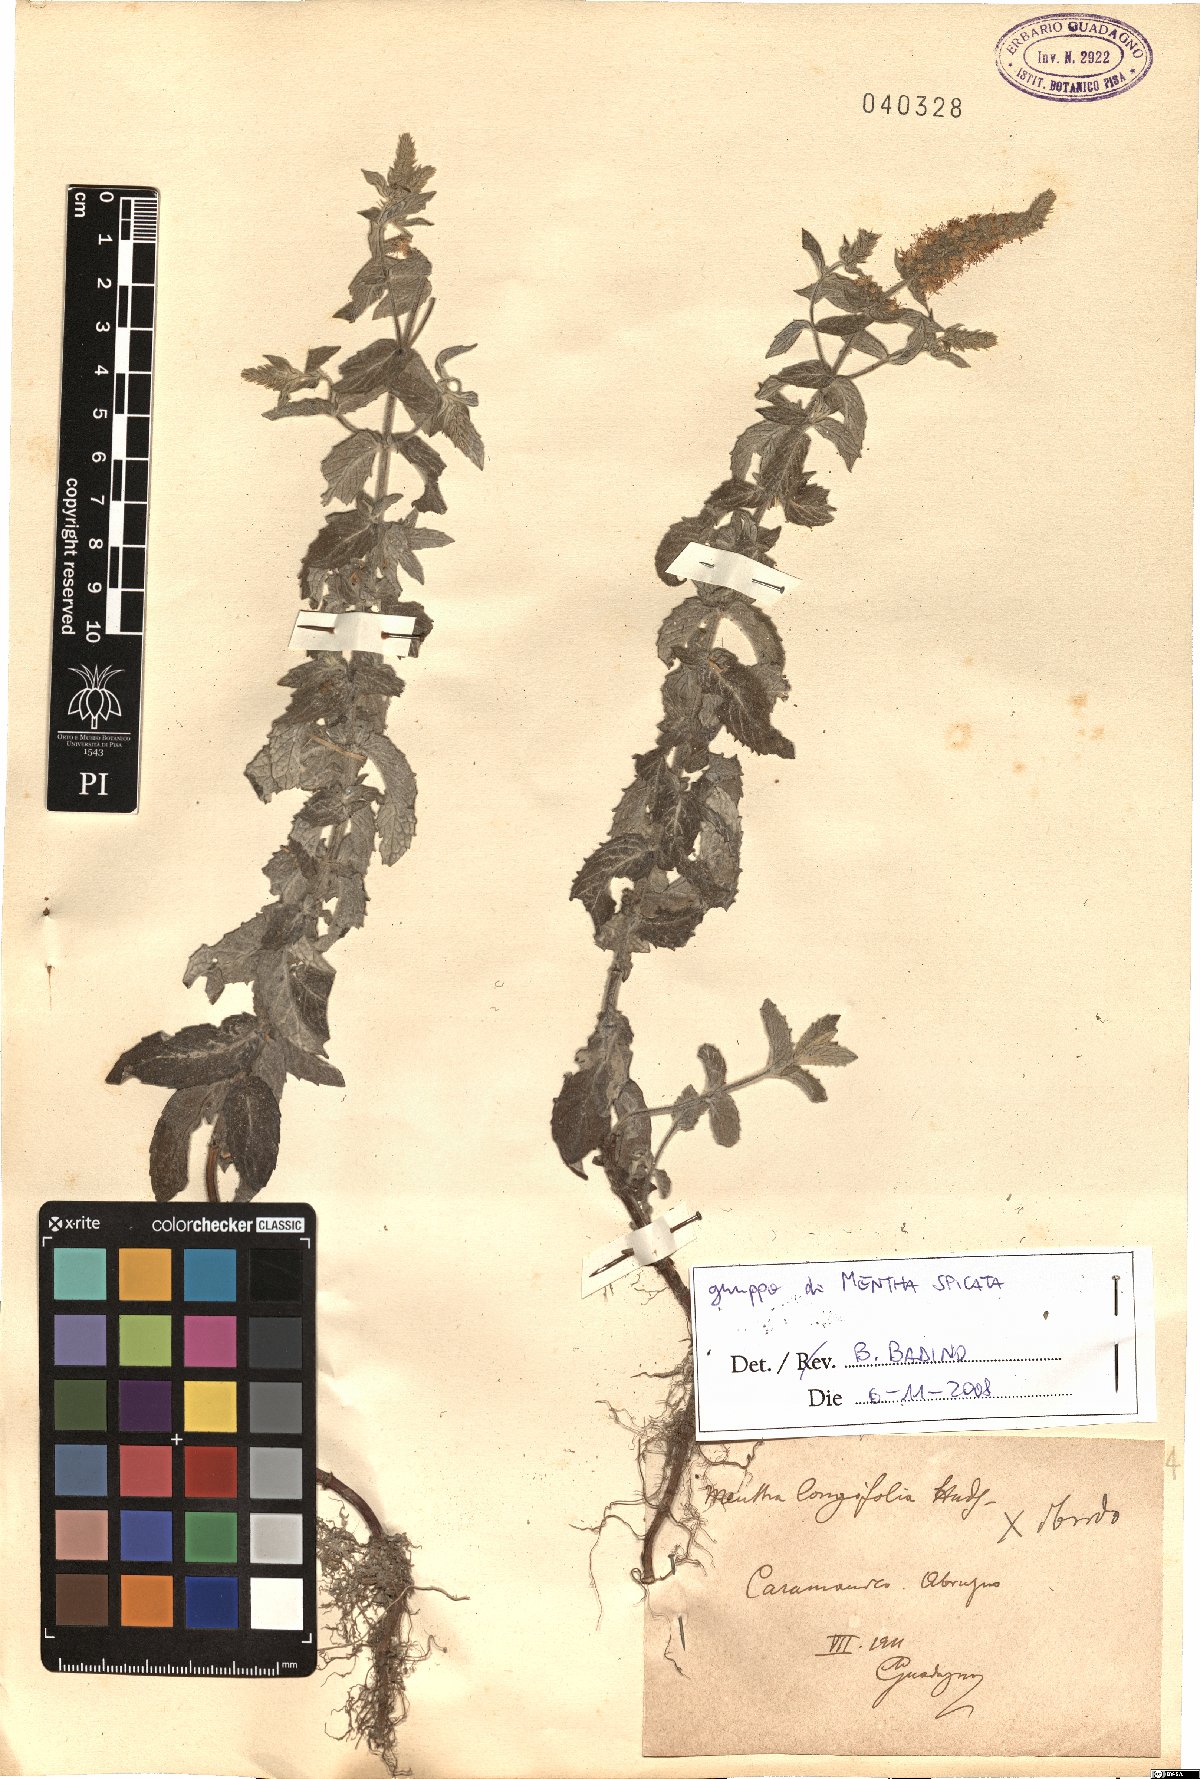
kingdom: Plantae
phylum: Tracheophyta
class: Magnoliopsida
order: Lamiales
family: Lamiaceae
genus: Mentha
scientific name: Mentha spicata
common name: Spearmint
